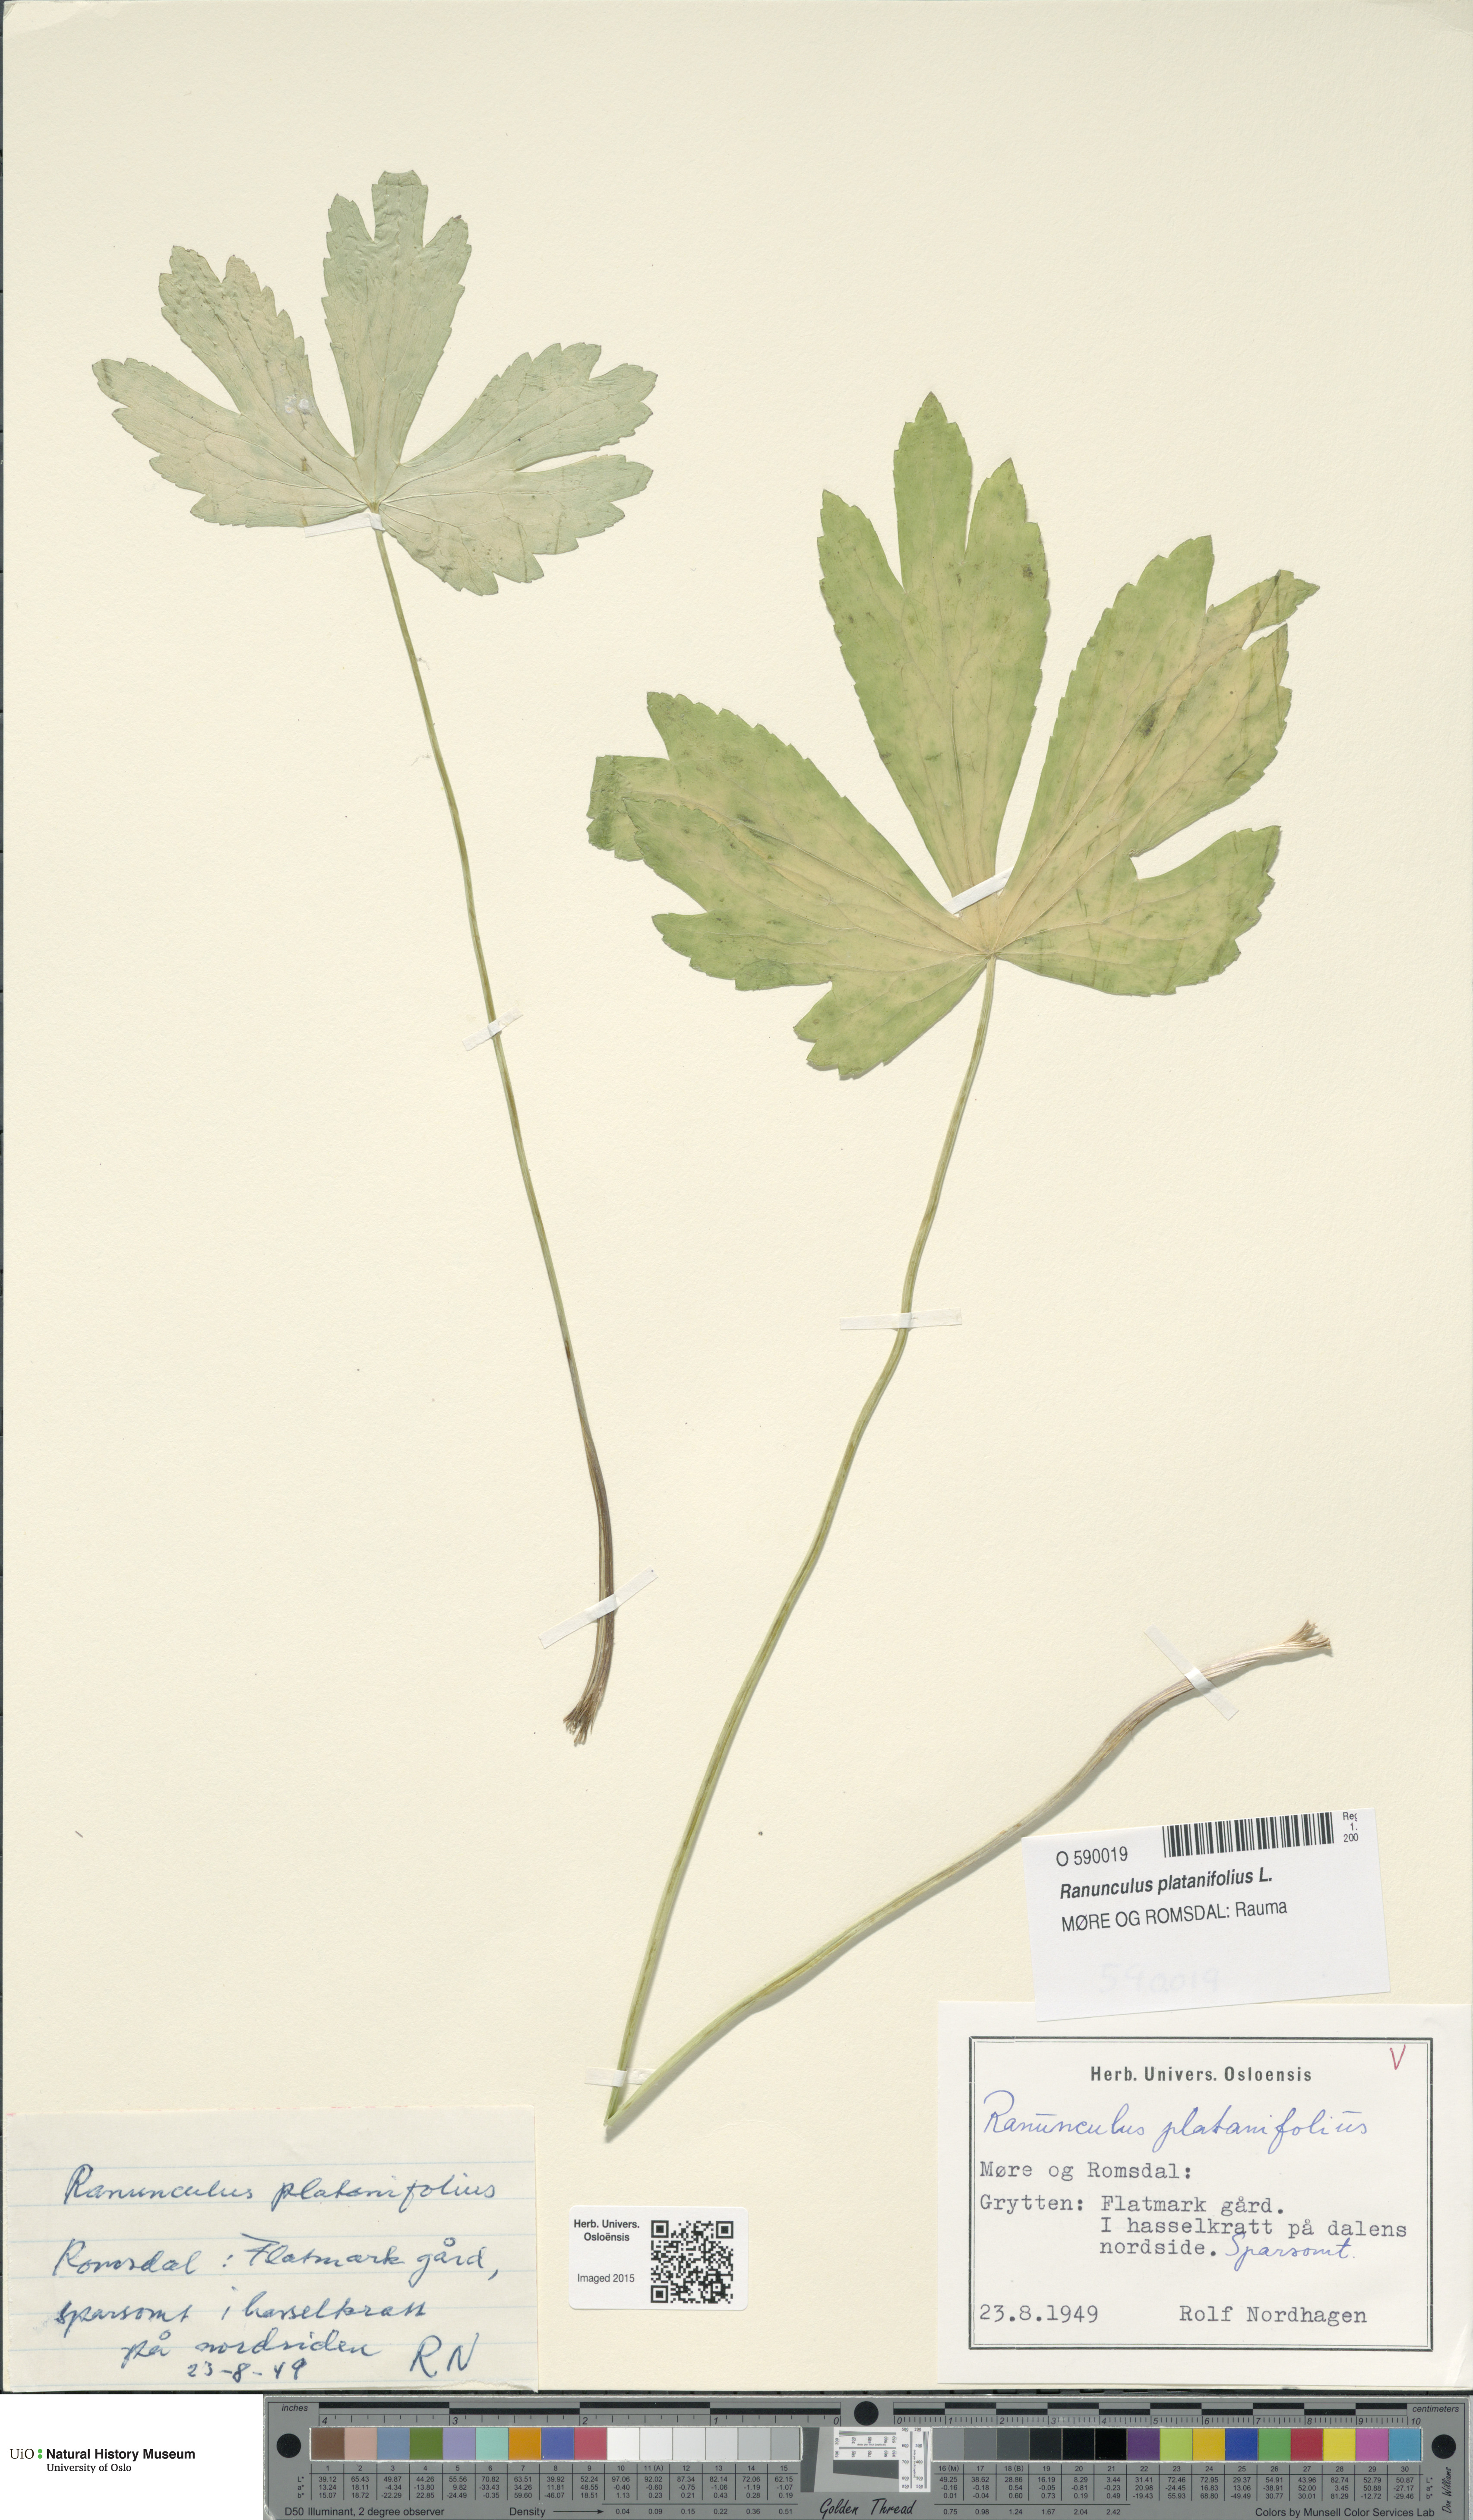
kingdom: Plantae
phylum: Tracheophyta
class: Magnoliopsida
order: Ranunculales
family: Ranunculaceae
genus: Ranunculus
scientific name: Ranunculus platanifolius
